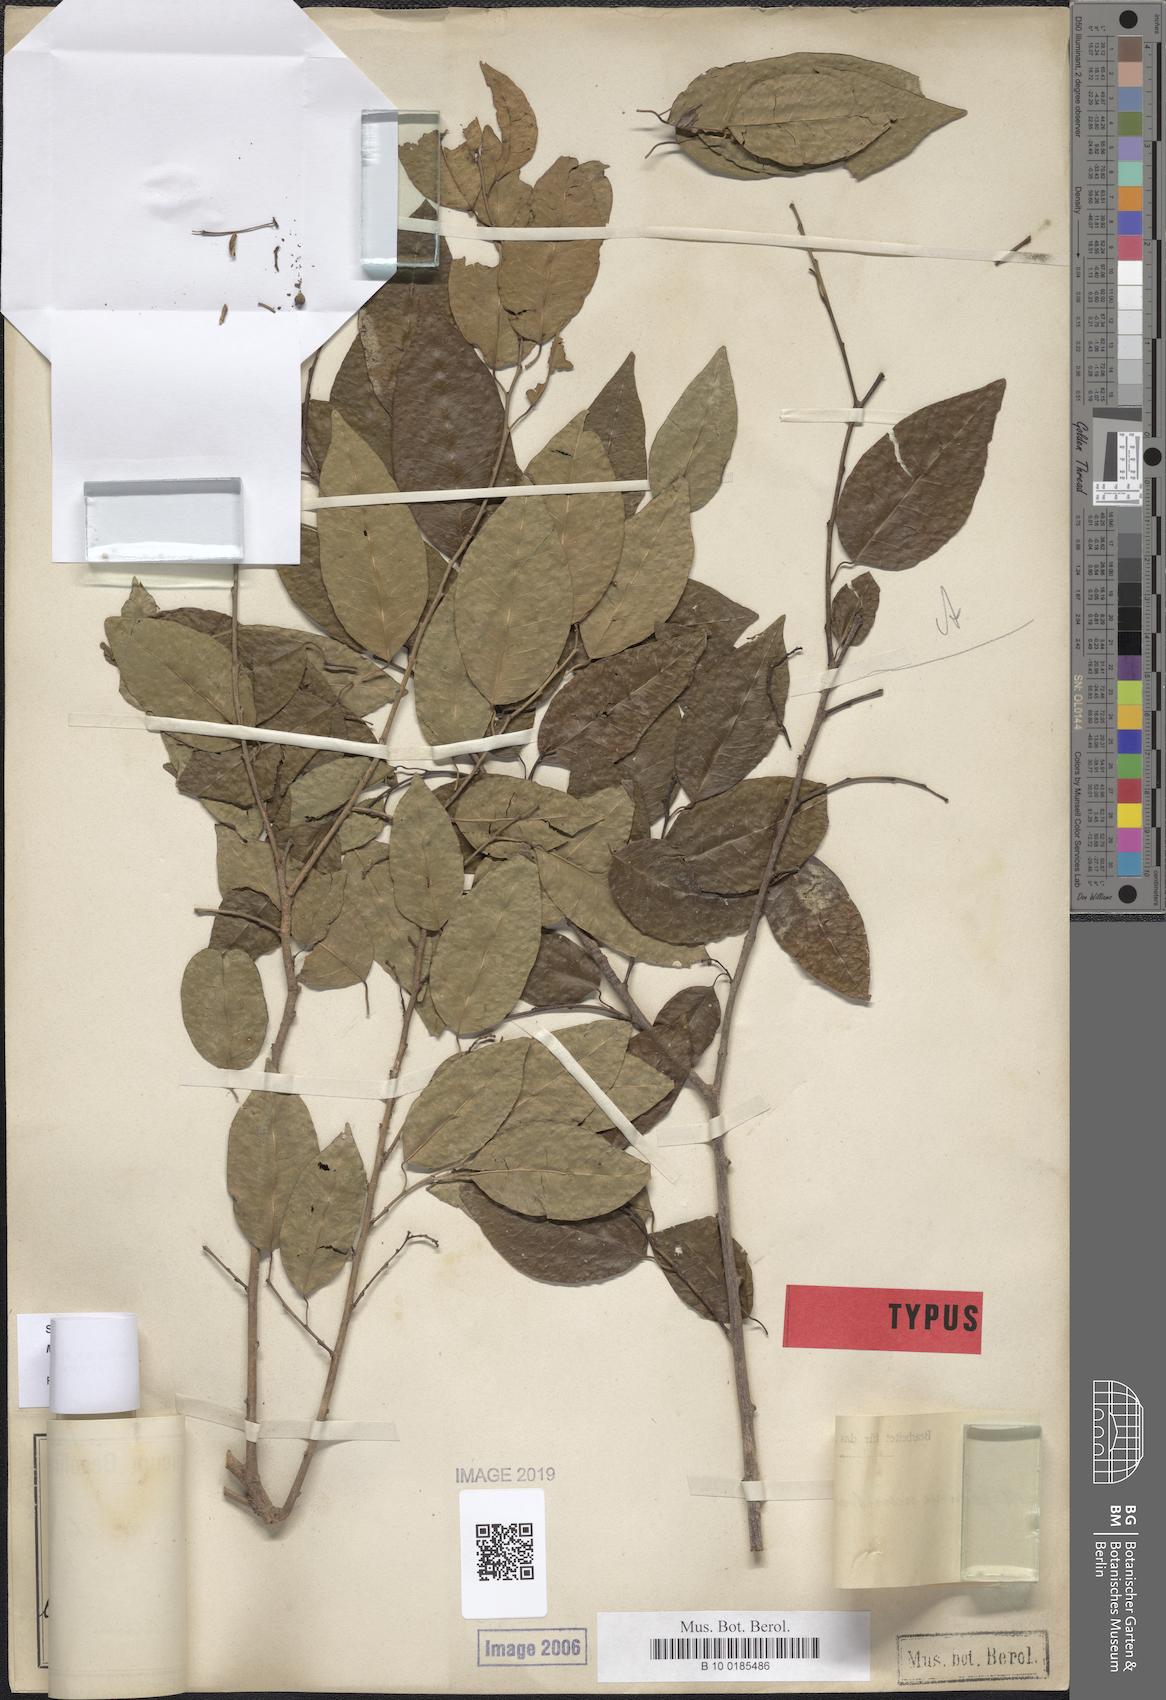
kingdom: Plantae
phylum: Tracheophyta
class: Magnoliopsida
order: Malpighiales
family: Euphorbiaceae
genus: Maprounea
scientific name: Maprounea membranacea
